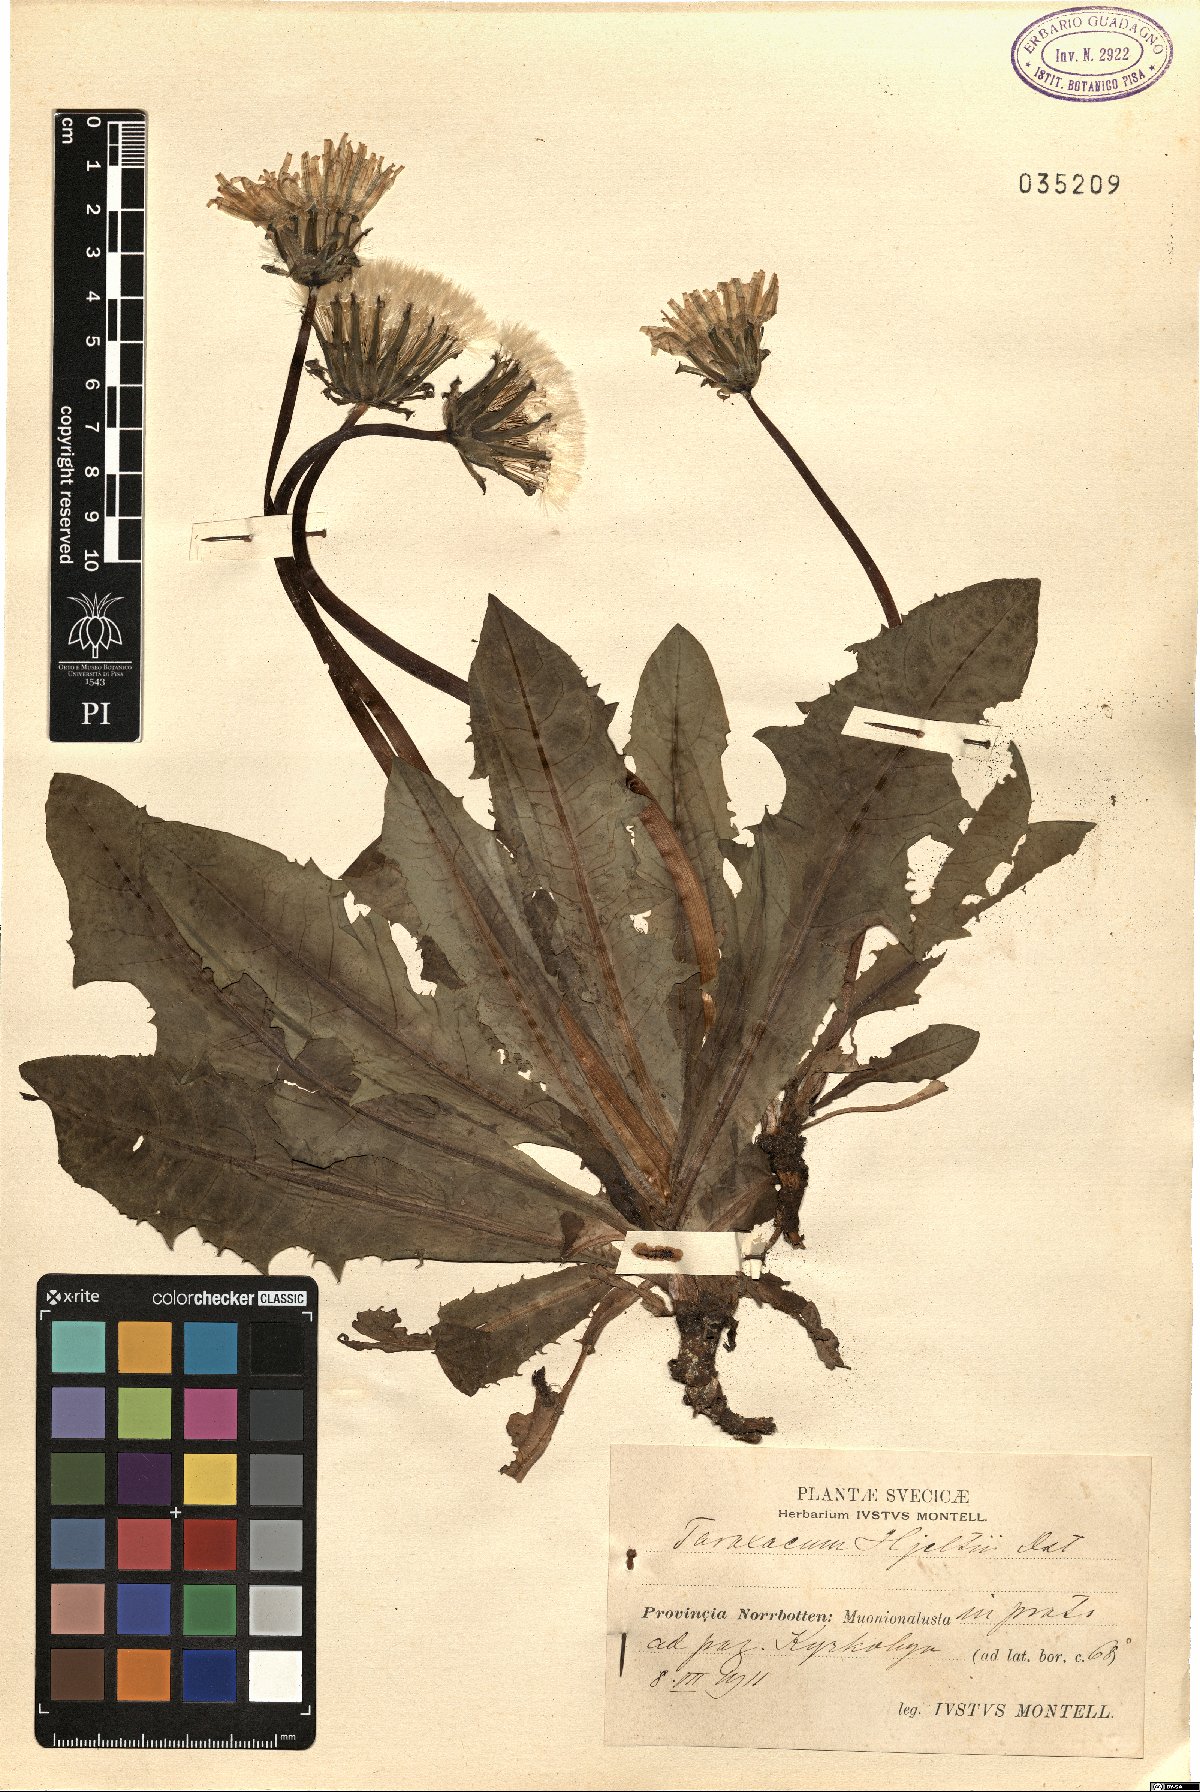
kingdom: Plantae
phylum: Tracheophyta
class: Magnoliopsida
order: Asterales
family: Asteraceae
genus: Taraxacum
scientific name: Taraxacum hjeltii
